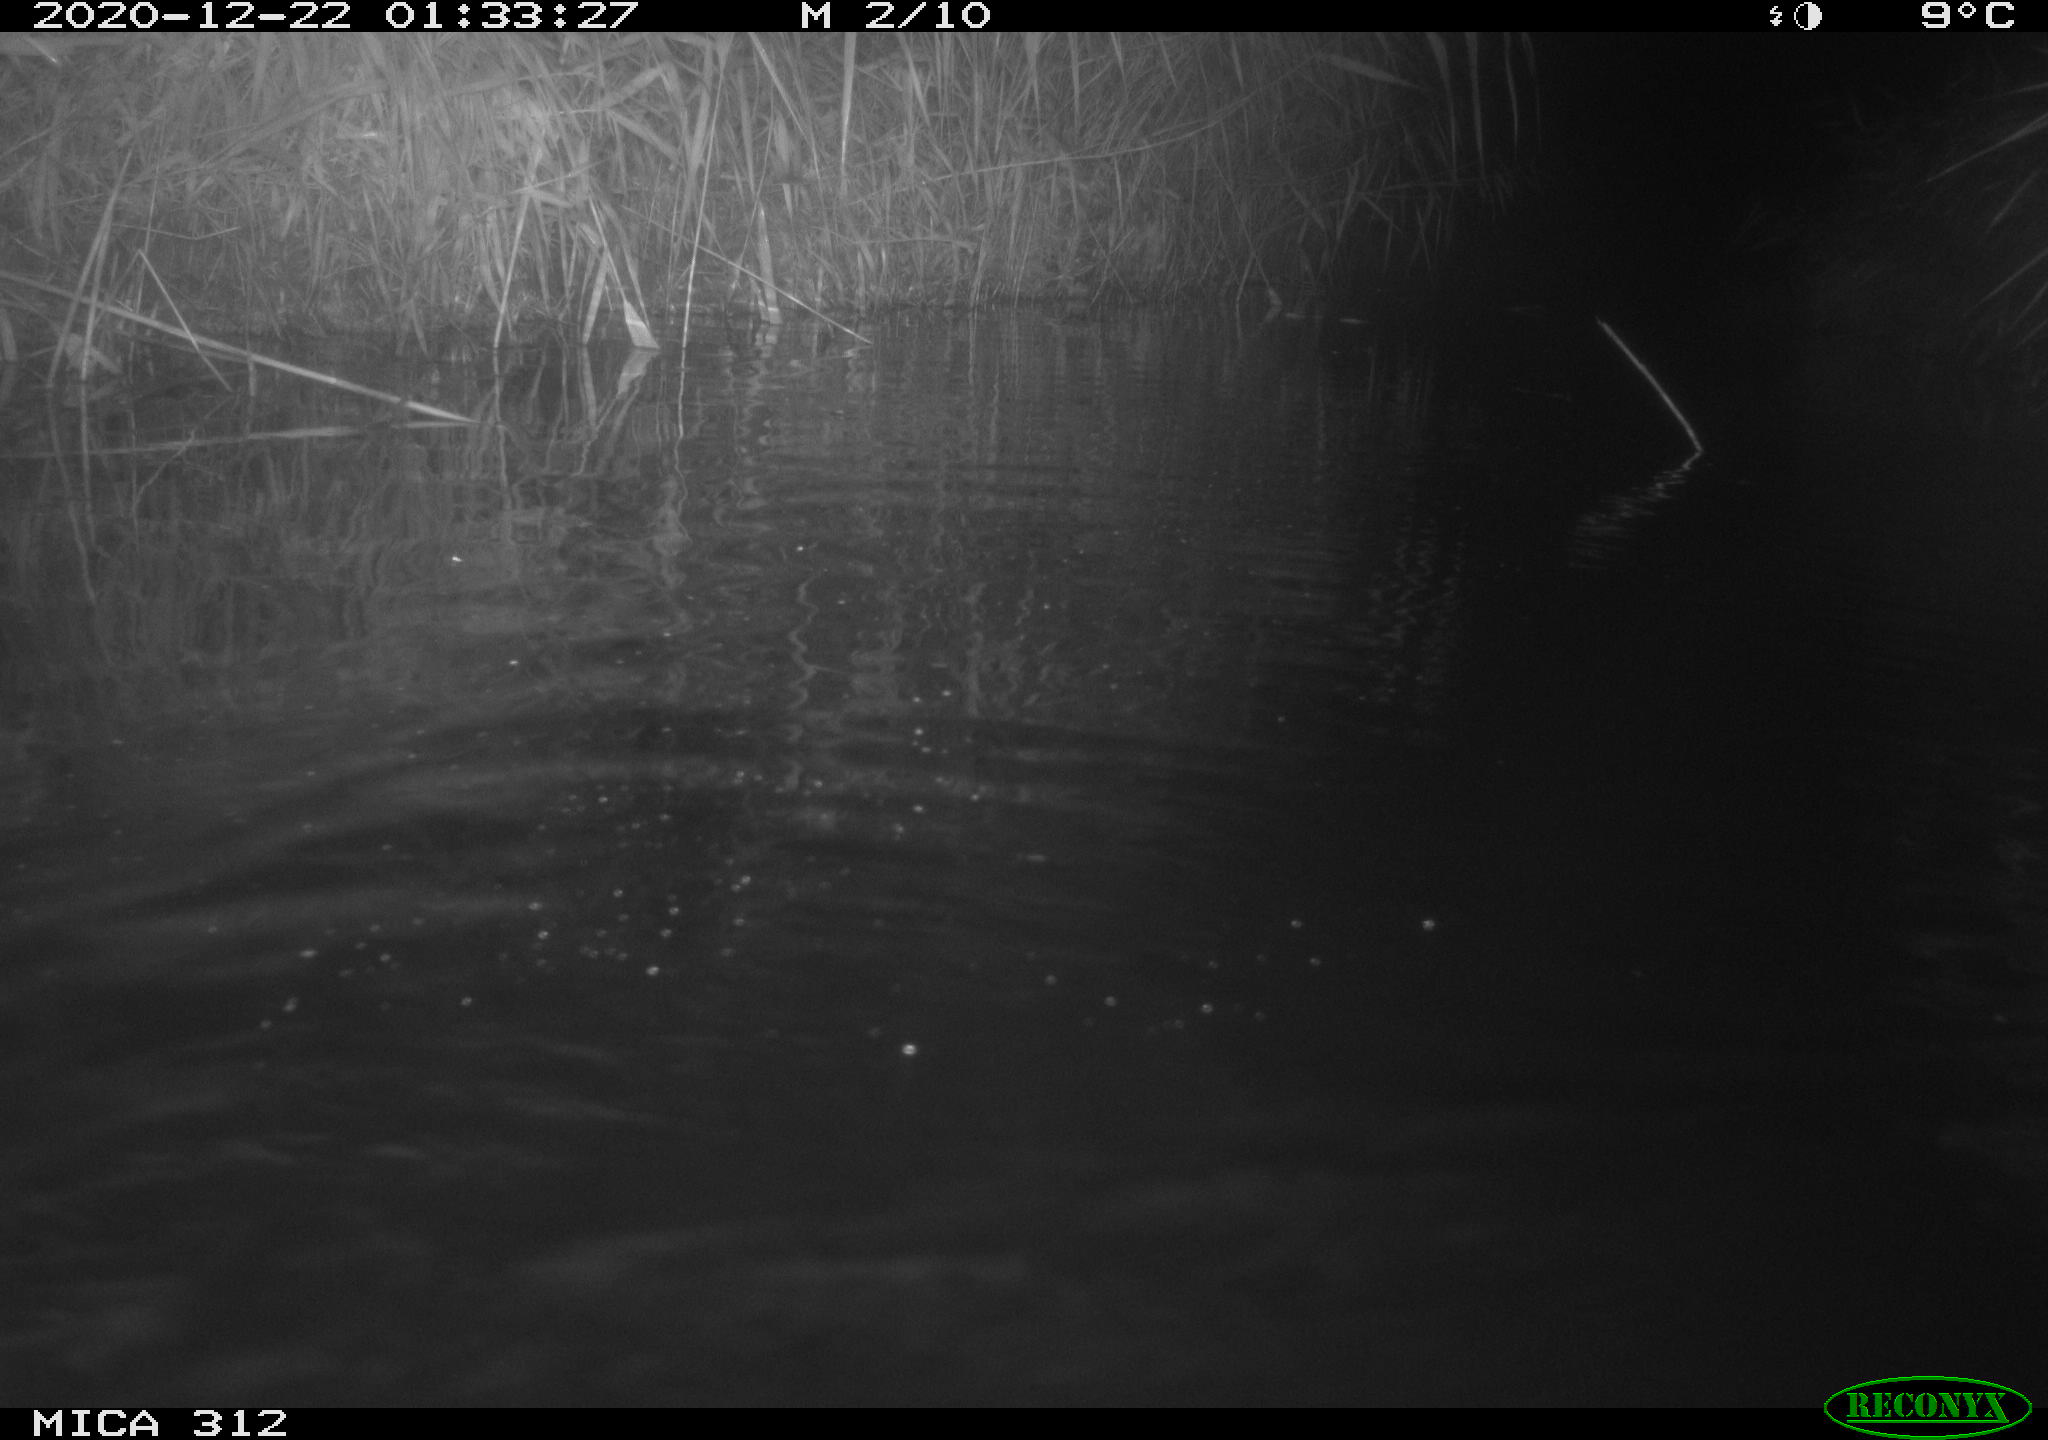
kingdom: Animalia
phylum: Chordata
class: Mammalia
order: Rodentia
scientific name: Rodentia
